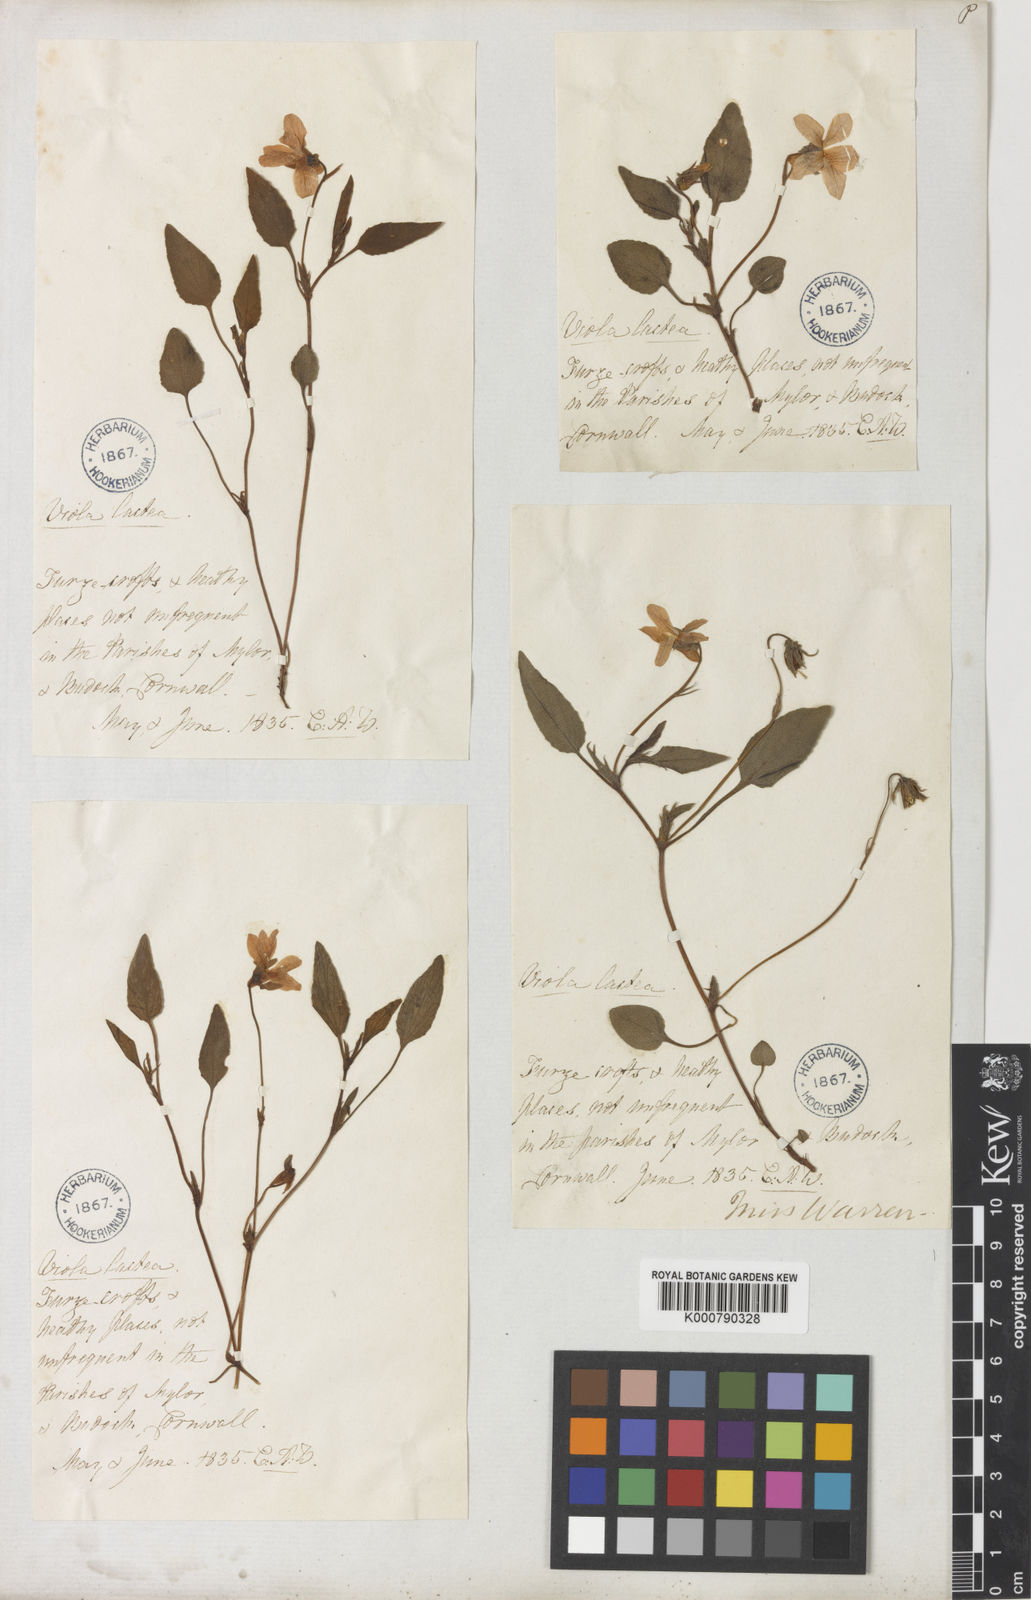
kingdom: Plantae
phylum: Tracheophyta
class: Magnoliopsida
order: Malpighiales
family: Violaceae
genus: Viola
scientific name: Viola lactea
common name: Pale dog-violet
